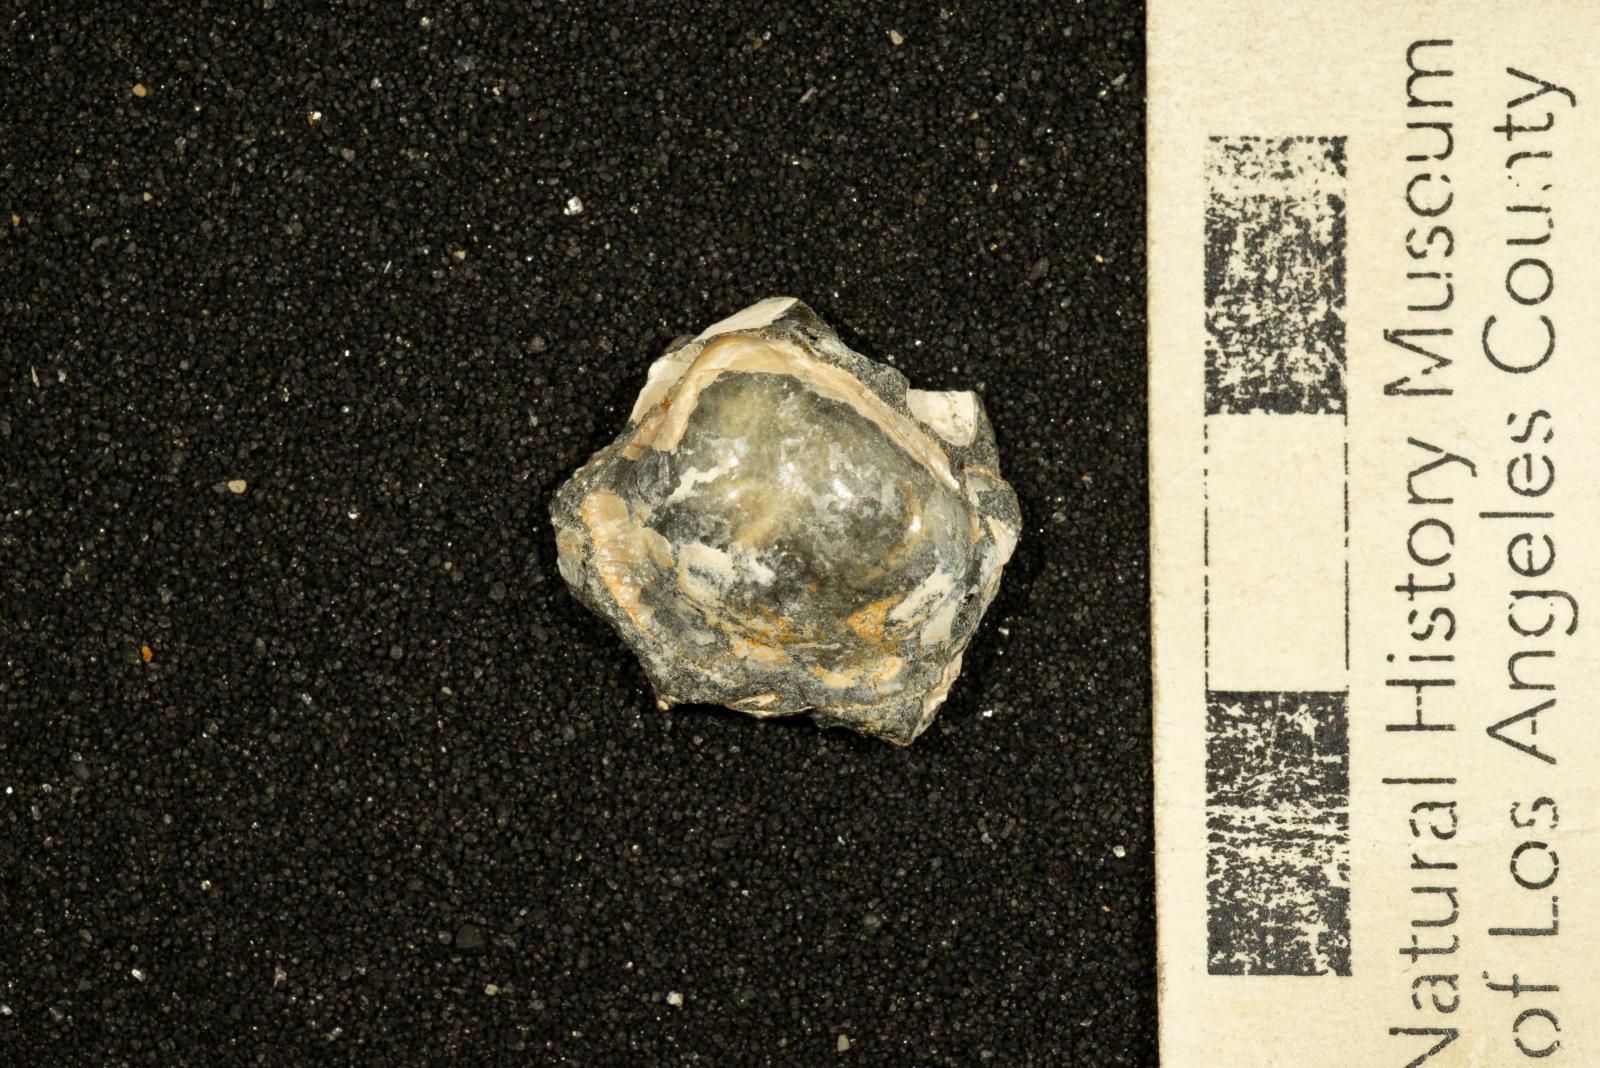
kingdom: Animalia
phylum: Mollusca
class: Bivalvia
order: Nuculida
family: Nuculidae
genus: Acila
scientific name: Acila demessa
